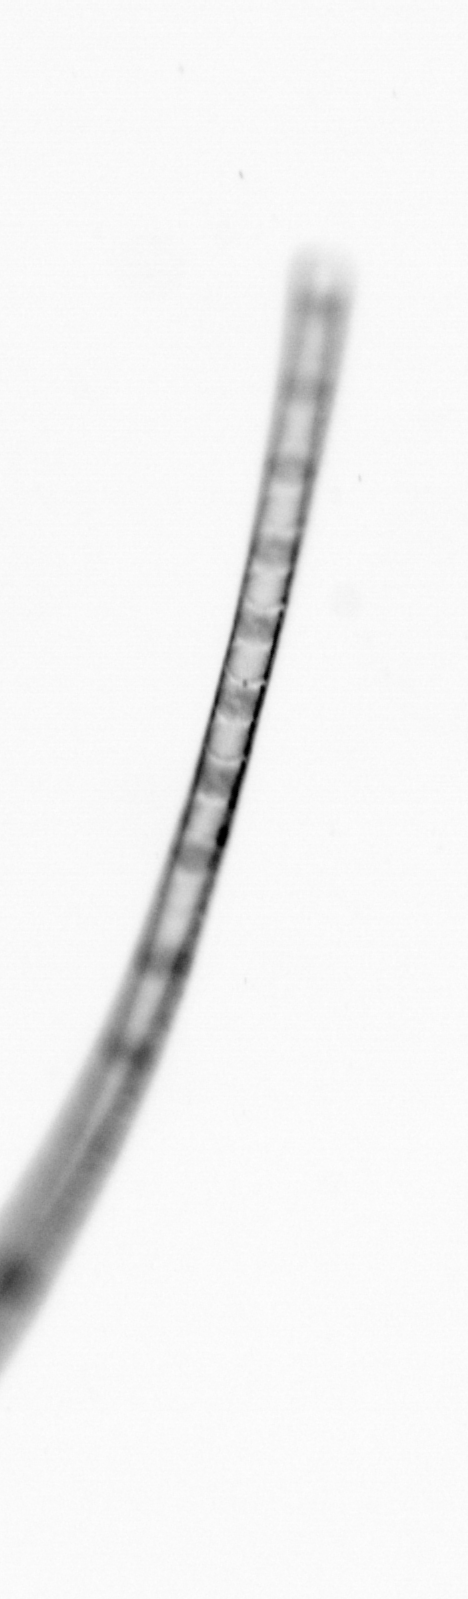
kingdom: Chromista
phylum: Ochrophyta
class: Bacillariophyceae
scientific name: Bacillariophyceae
